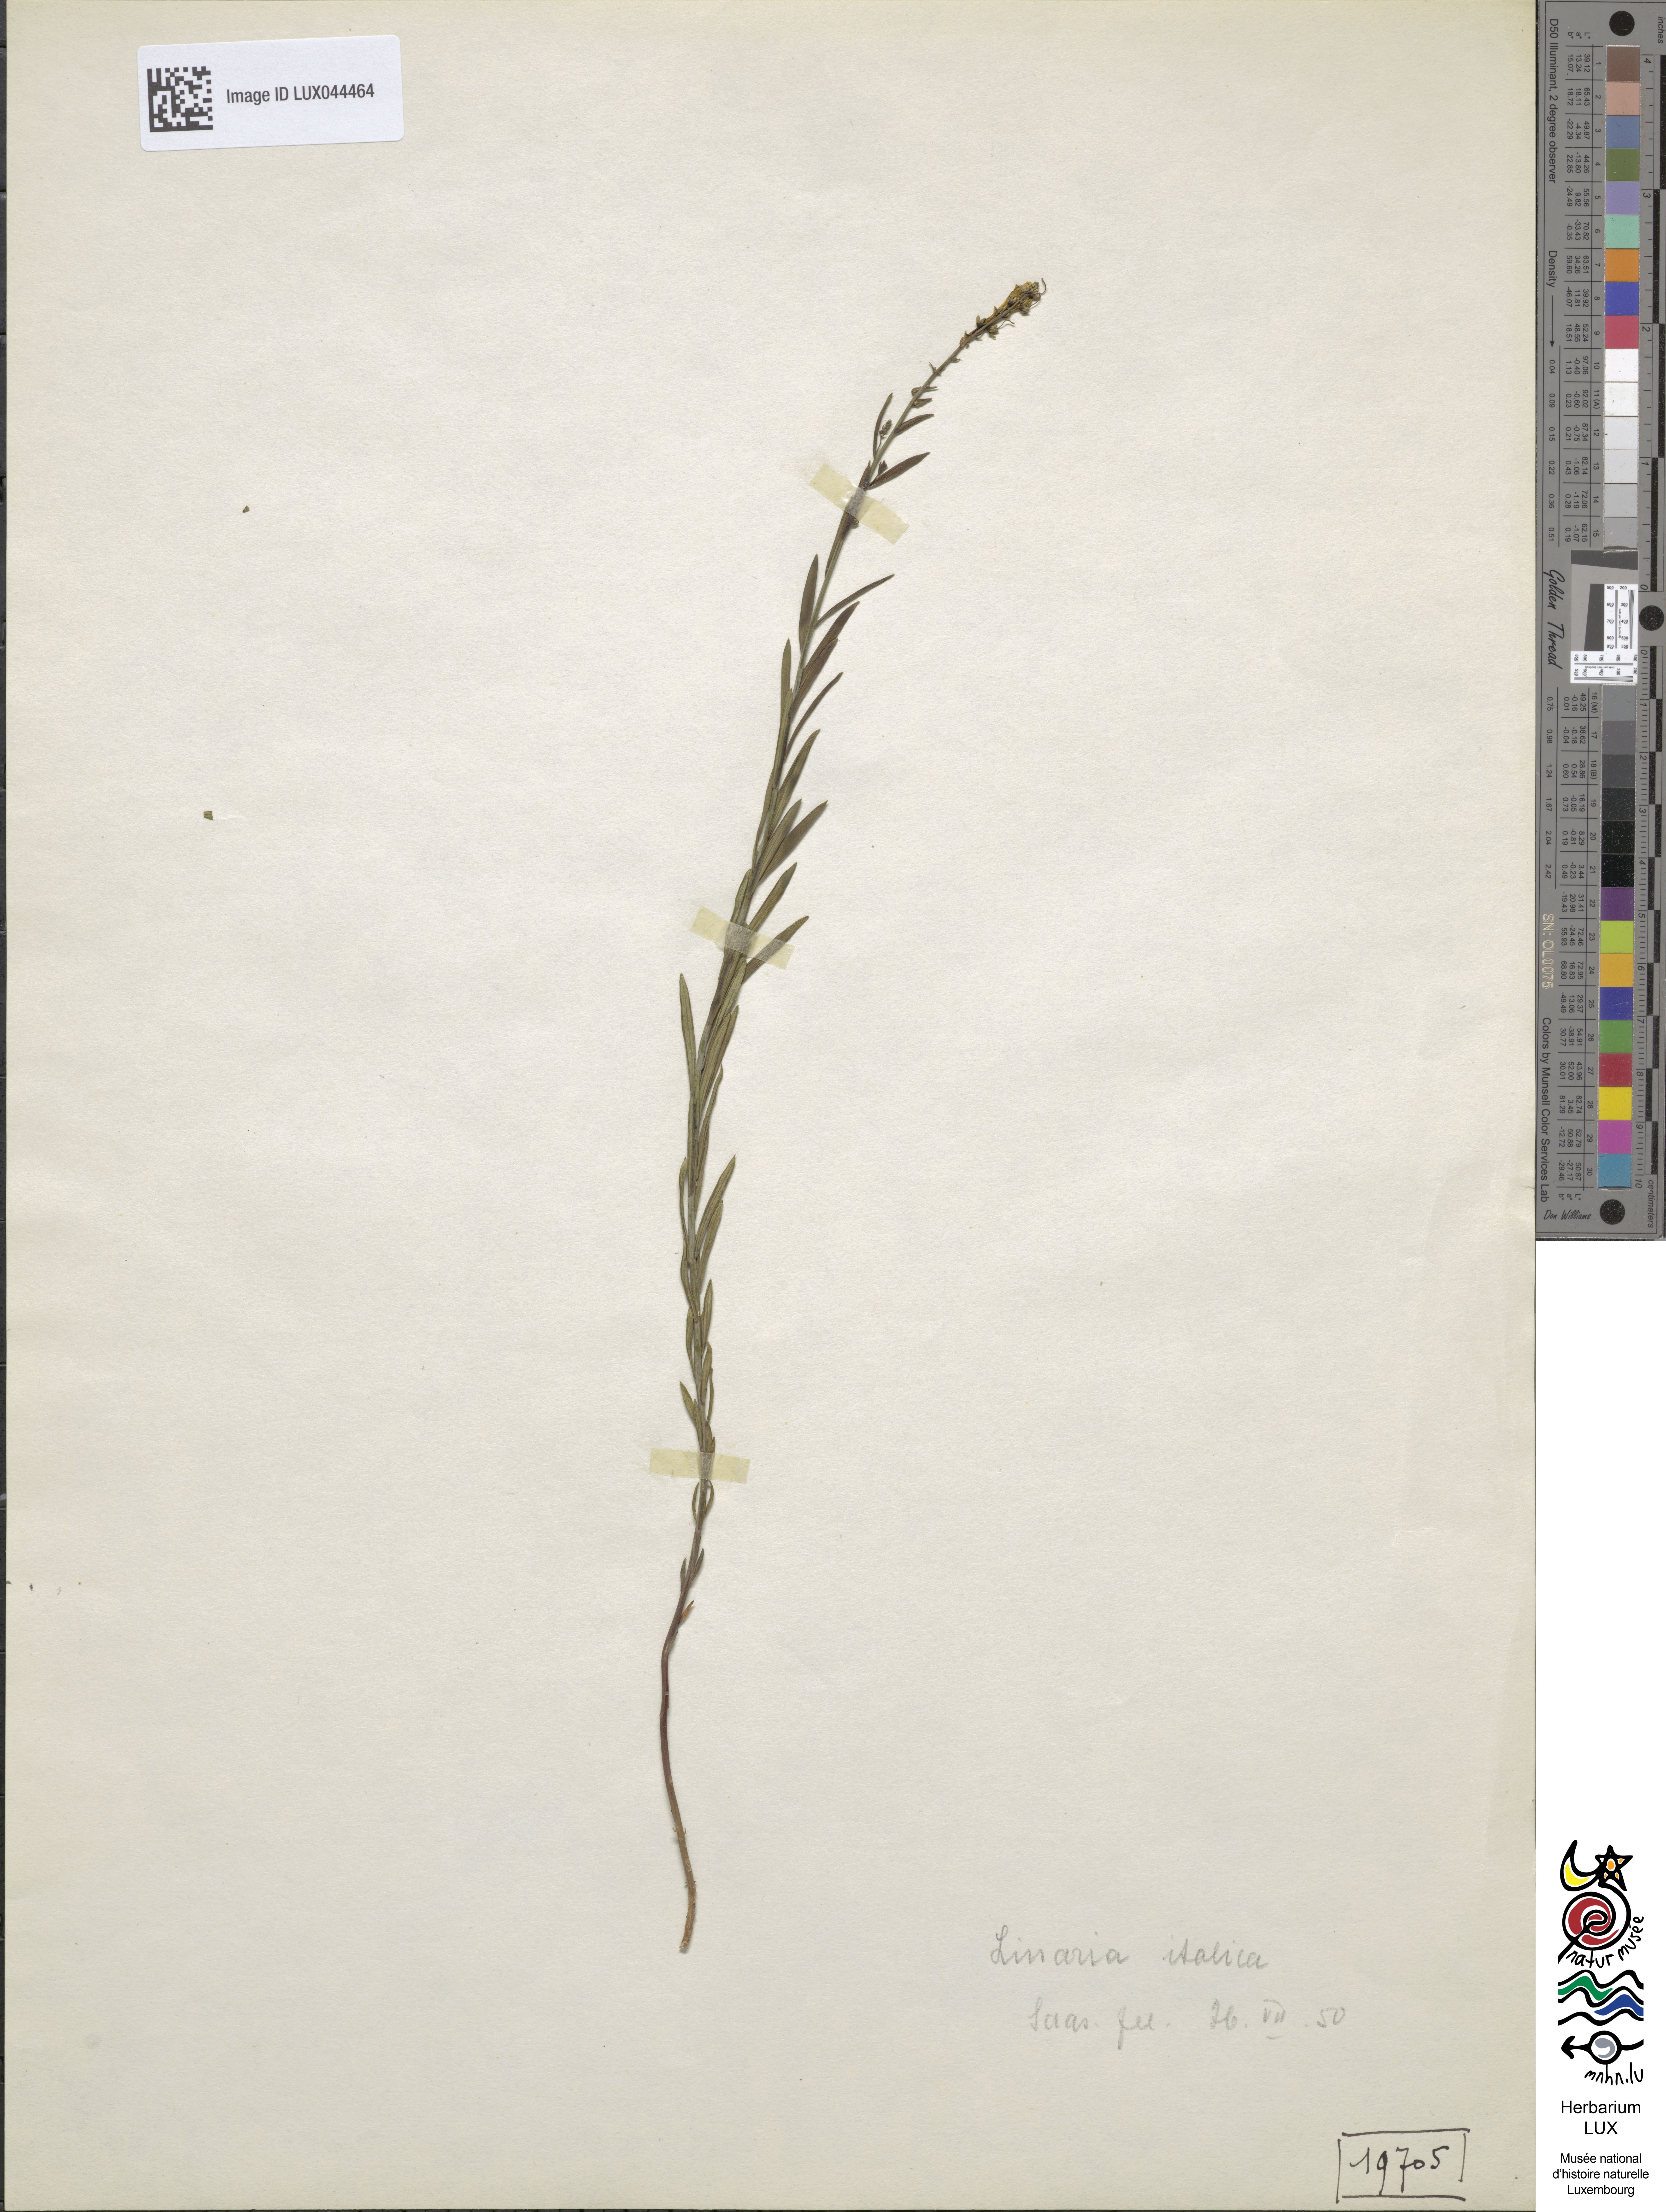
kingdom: Plantae
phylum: Tracheophyta
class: Magnoliopsida
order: Lamiales
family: Plantaginaceae
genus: Linaria
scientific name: Linaria angustissima
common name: Italian toadflax
